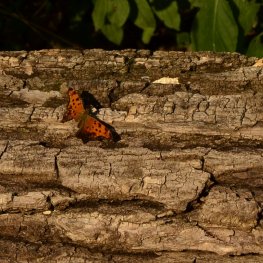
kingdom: Animalia
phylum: Arthropoda
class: Insecta
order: Lepidoptera
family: Nymphalidae
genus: Polygonia
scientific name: Polygonia comma
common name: Eastern Comma
